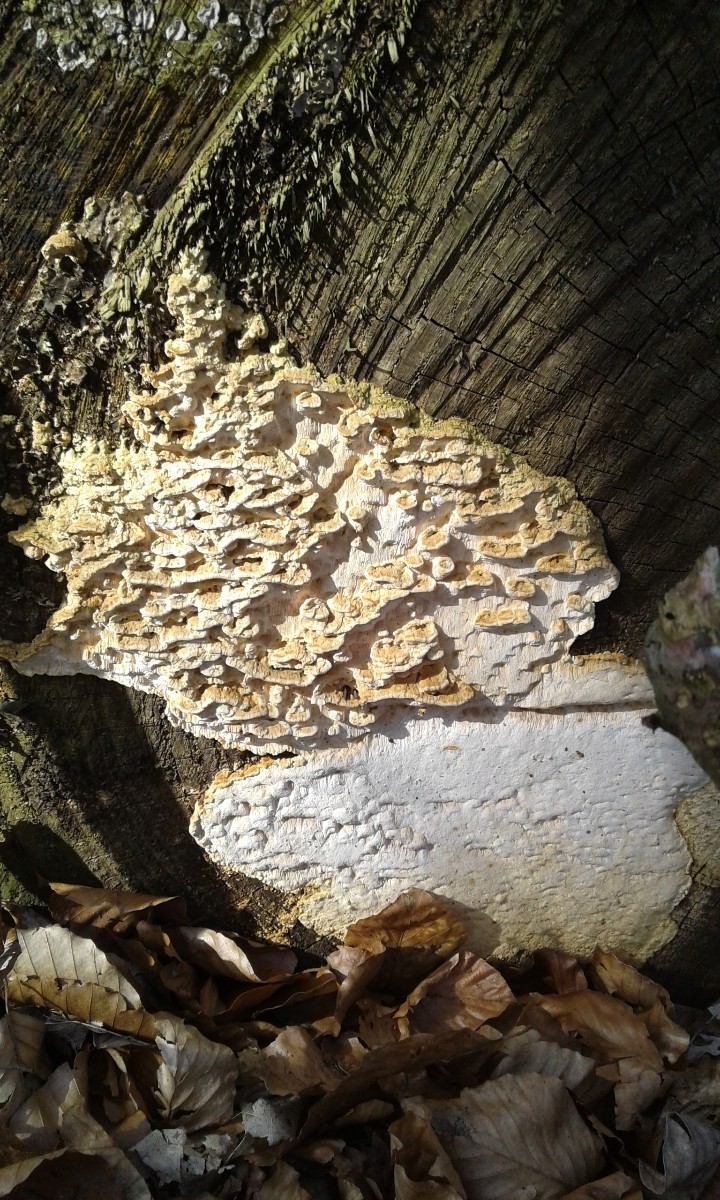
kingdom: Fungi
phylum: Basidiomycota
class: Agaricomycetes
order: Polyporales
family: Fomitopsidaceae
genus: Neoantrodia
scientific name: Neoantrodia serialis
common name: række-sejporesvamp
